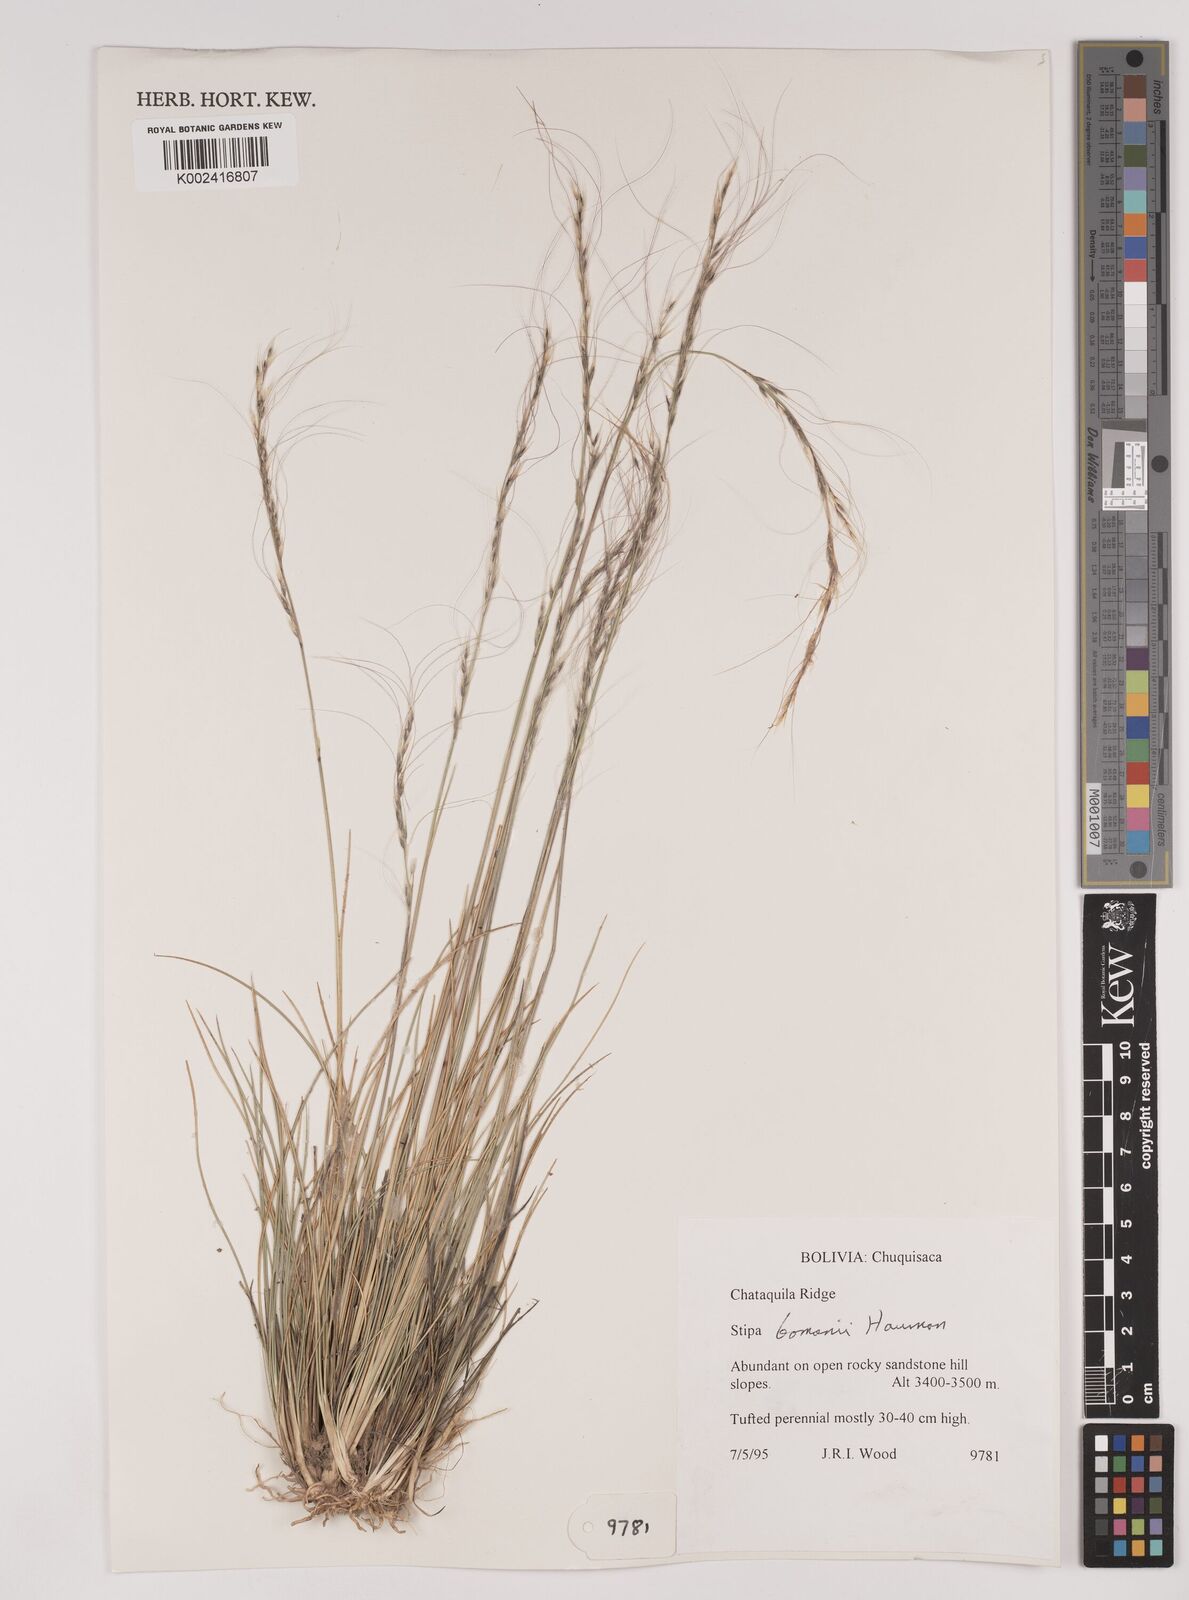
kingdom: Plantae
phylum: Tracheophyta
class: Liliopsida
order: Poales
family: Poaceae
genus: Stipa
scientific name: Stipa bomanii
